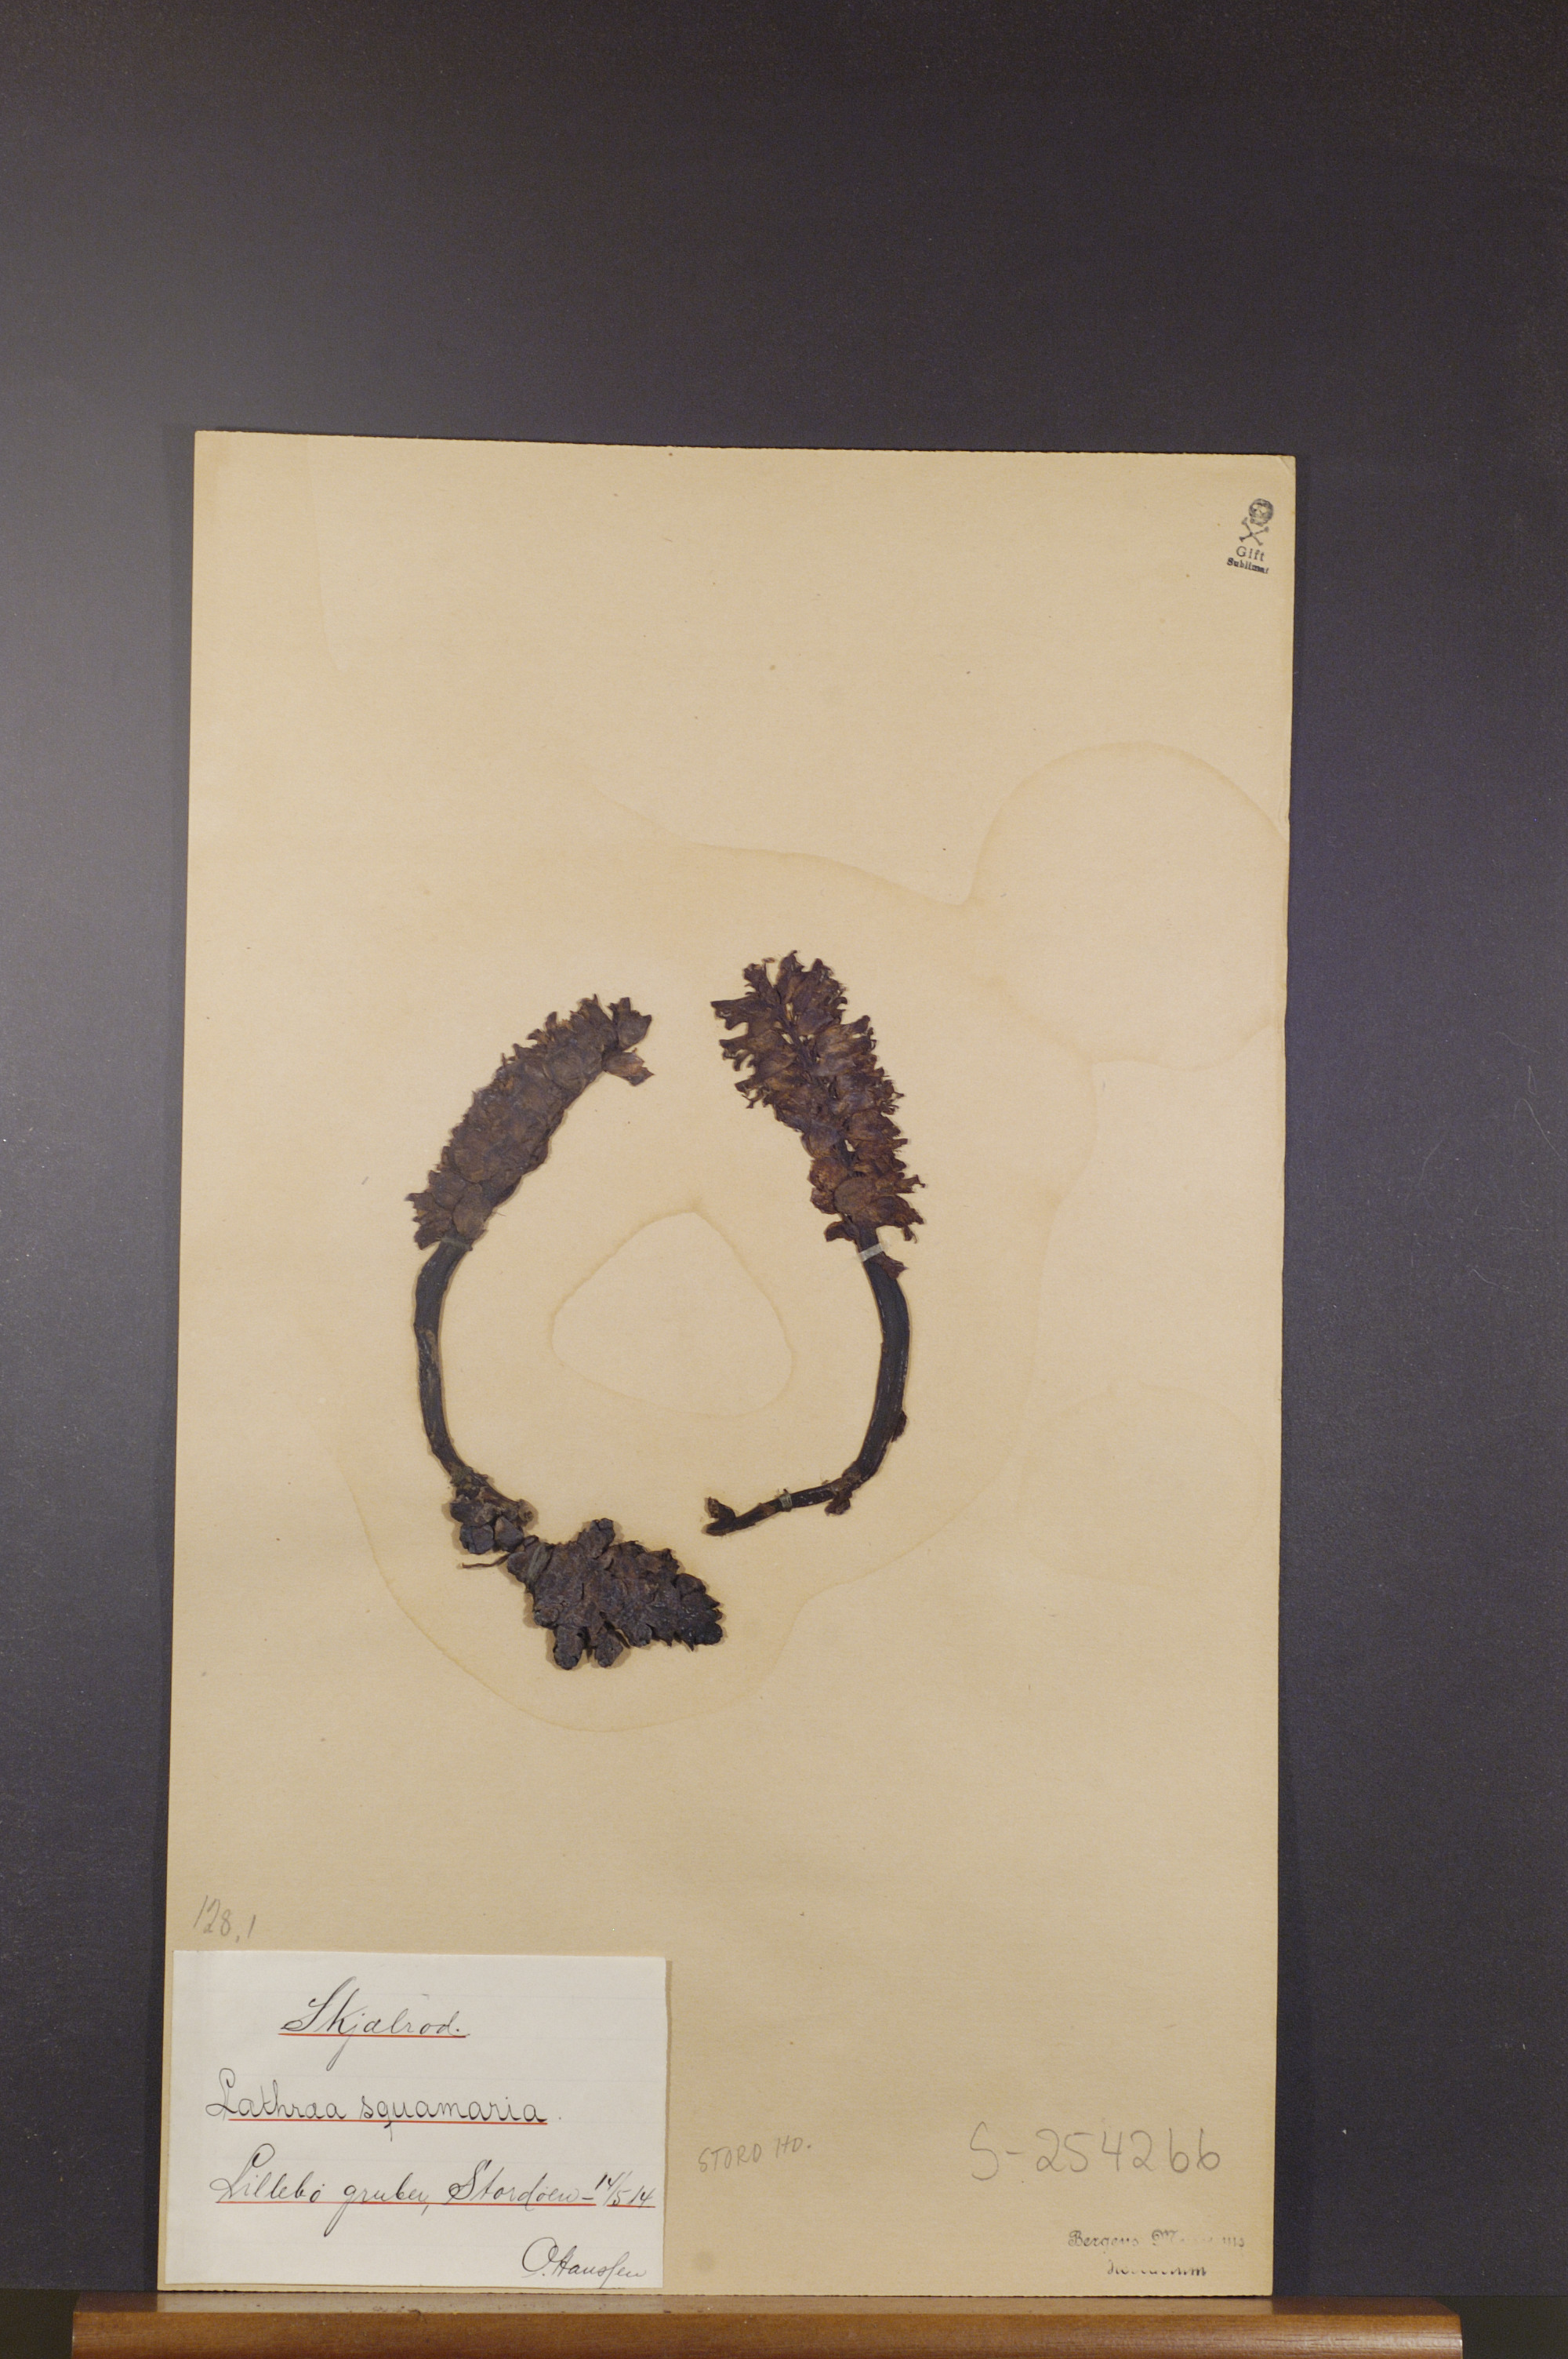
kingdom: Plantae
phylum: Tracheophyta
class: Magnoliopsida
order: Lamiales
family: Orobanchaceae
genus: Lathraea
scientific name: Lathraea squamaria
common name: Toothwort
